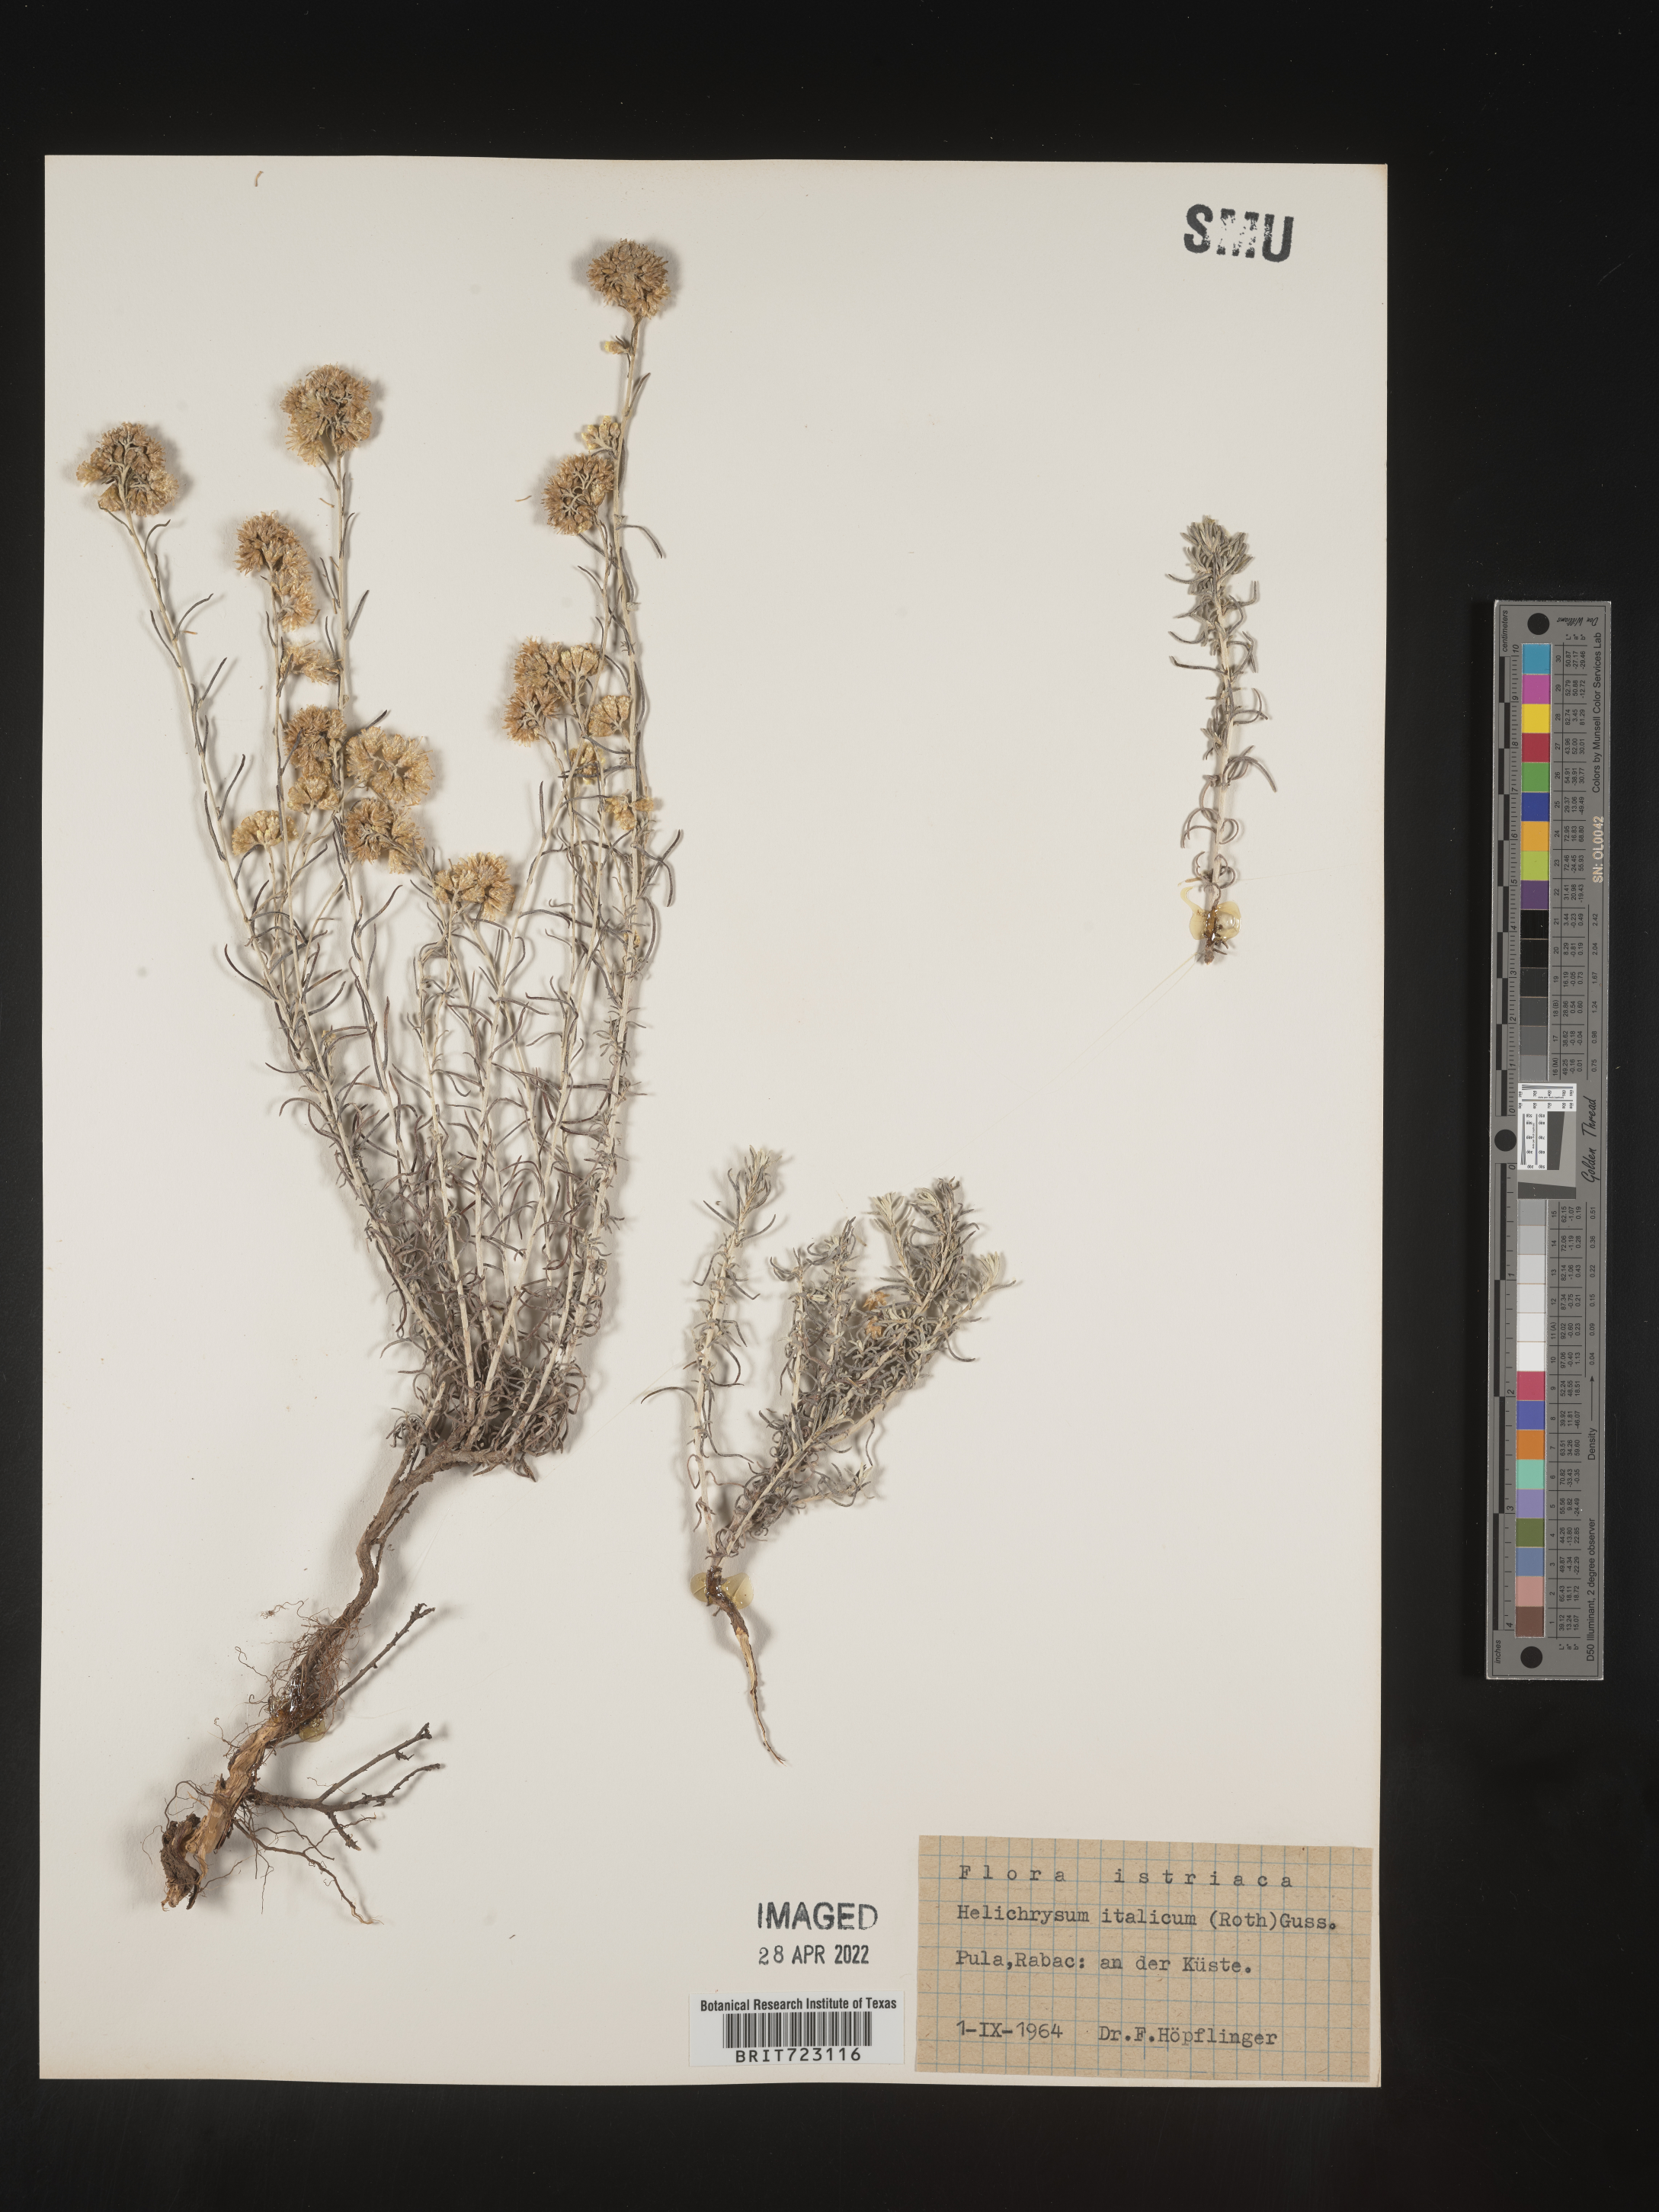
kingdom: Plantae
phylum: Tracheophyta
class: Magnoliopsida
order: Asterales
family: Asteraceae
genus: Helichrysum
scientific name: Helichrysum italicum
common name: Curryplant
